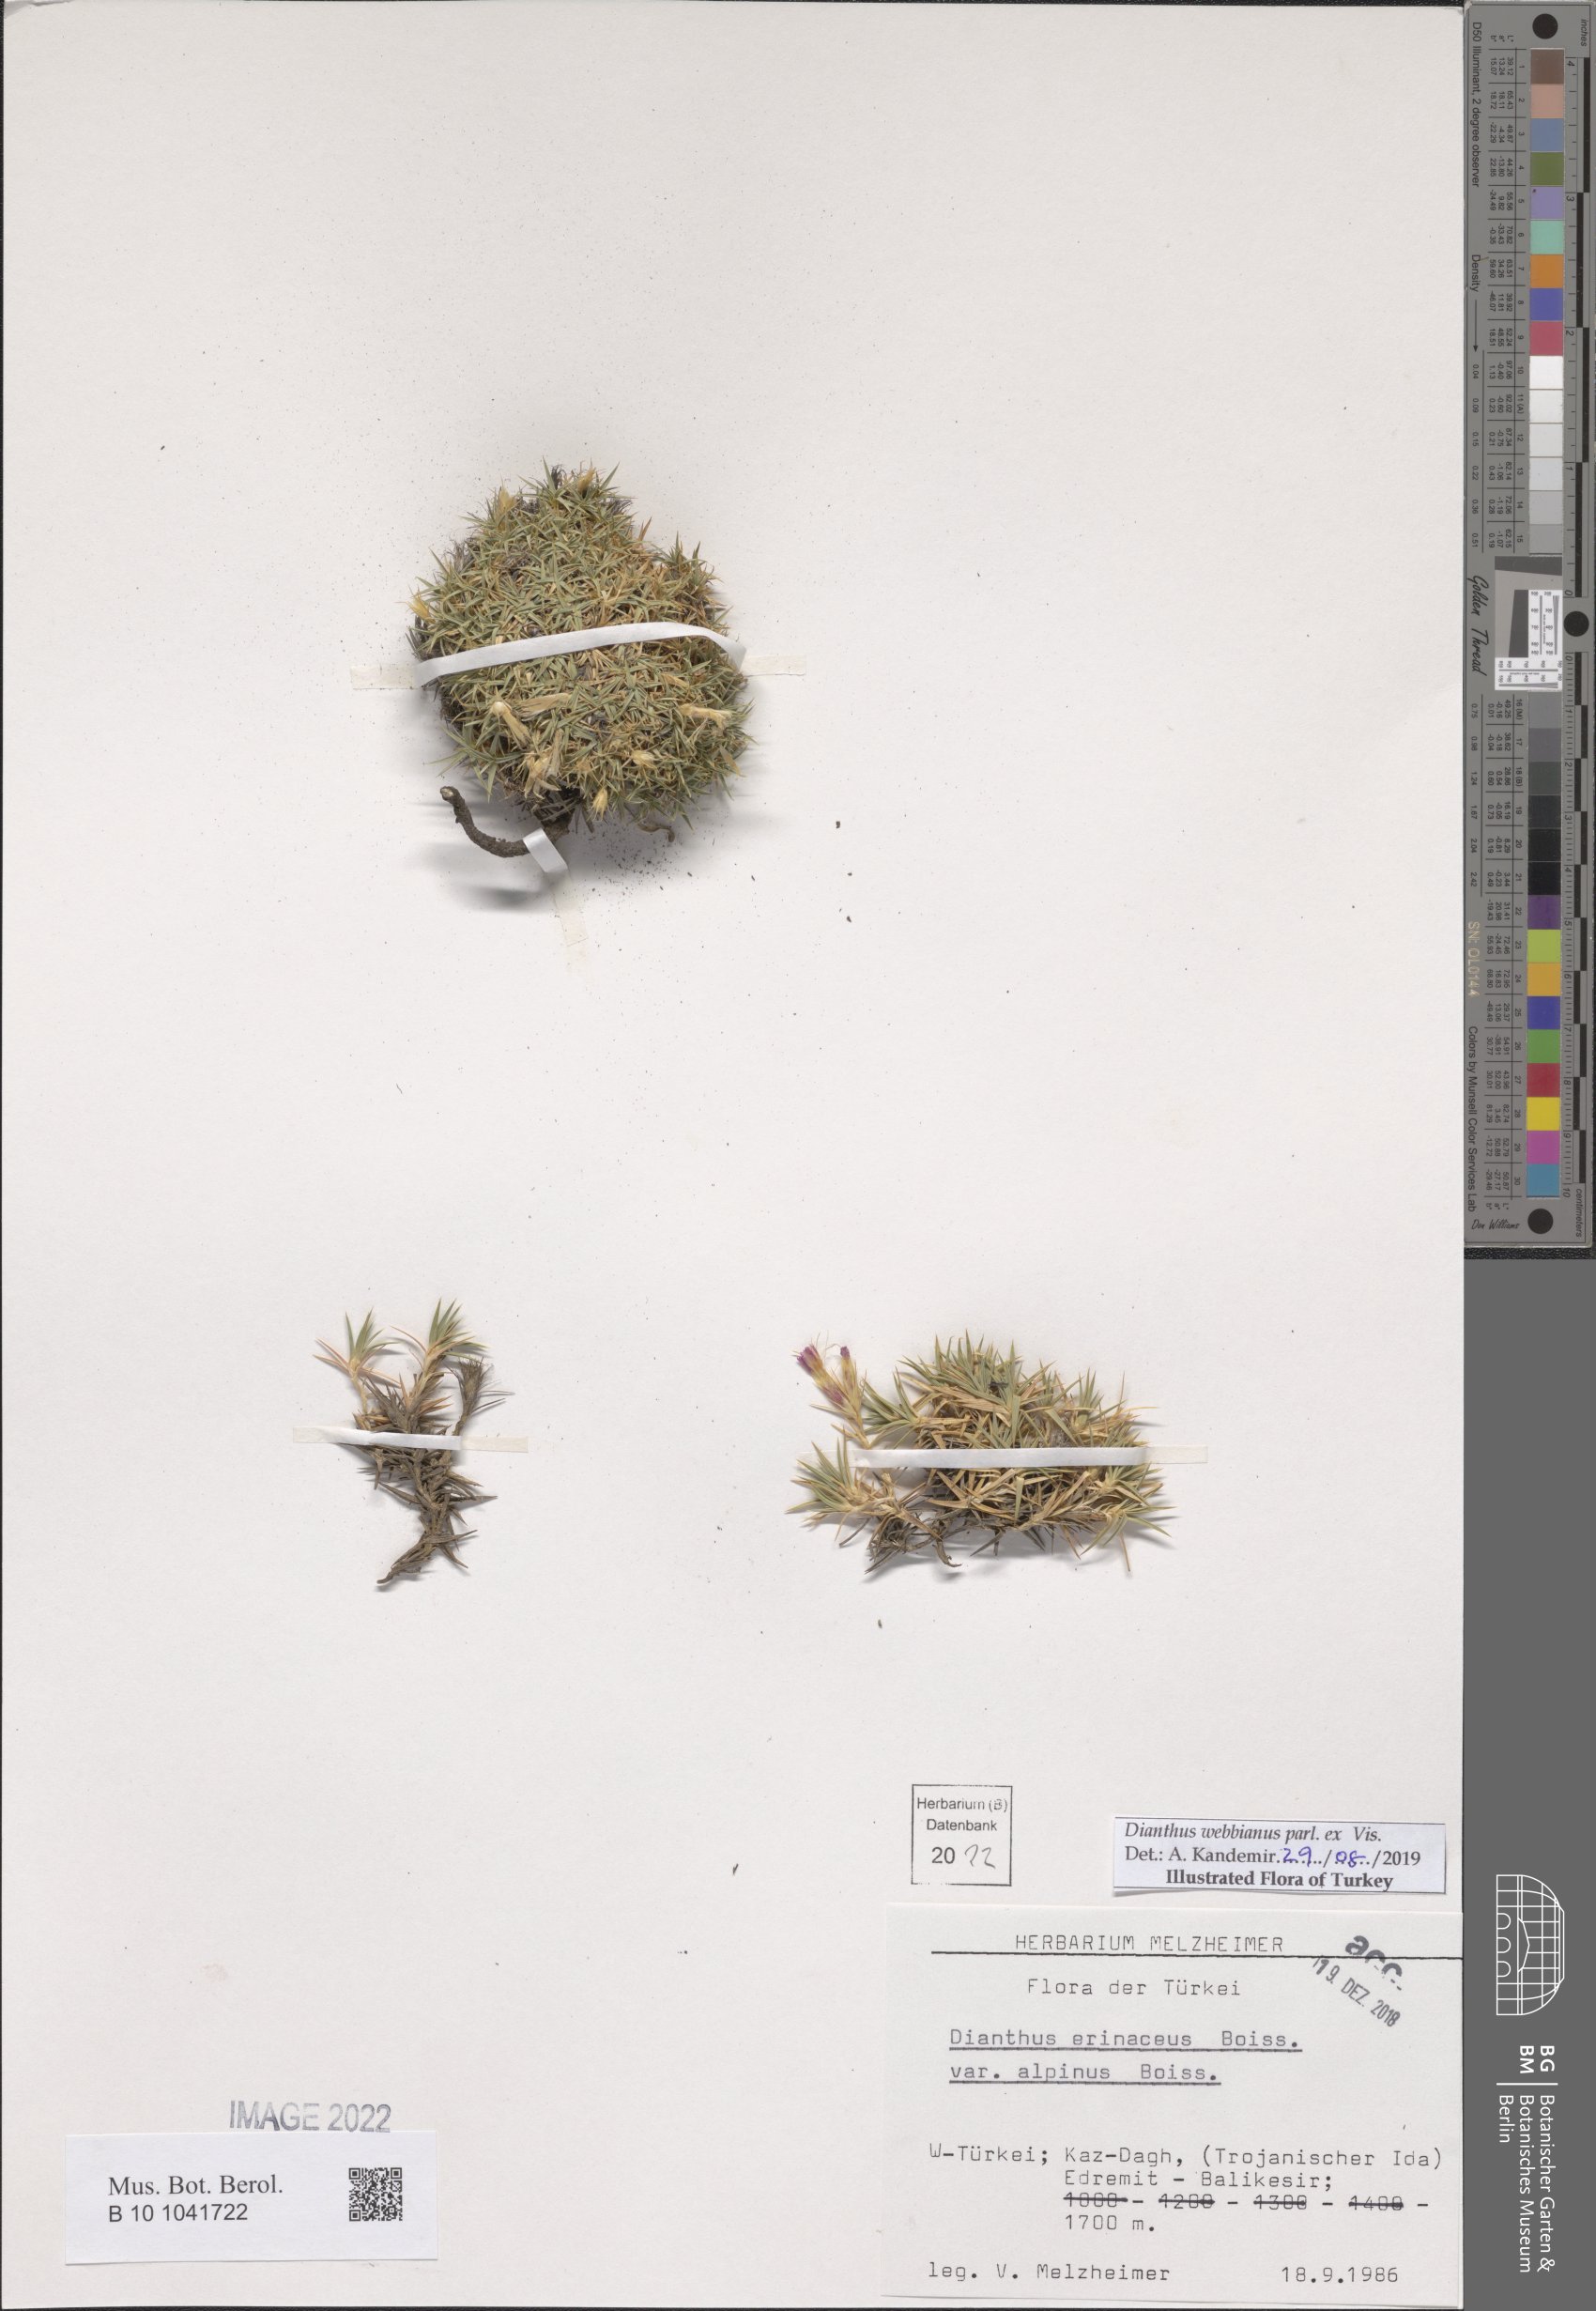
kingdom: Plantae
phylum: Tracheophyta
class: Magnoliopsida
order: Caryophyllales
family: Caryophyllaceae
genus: Dianthus
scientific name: Dianthus webbianus
